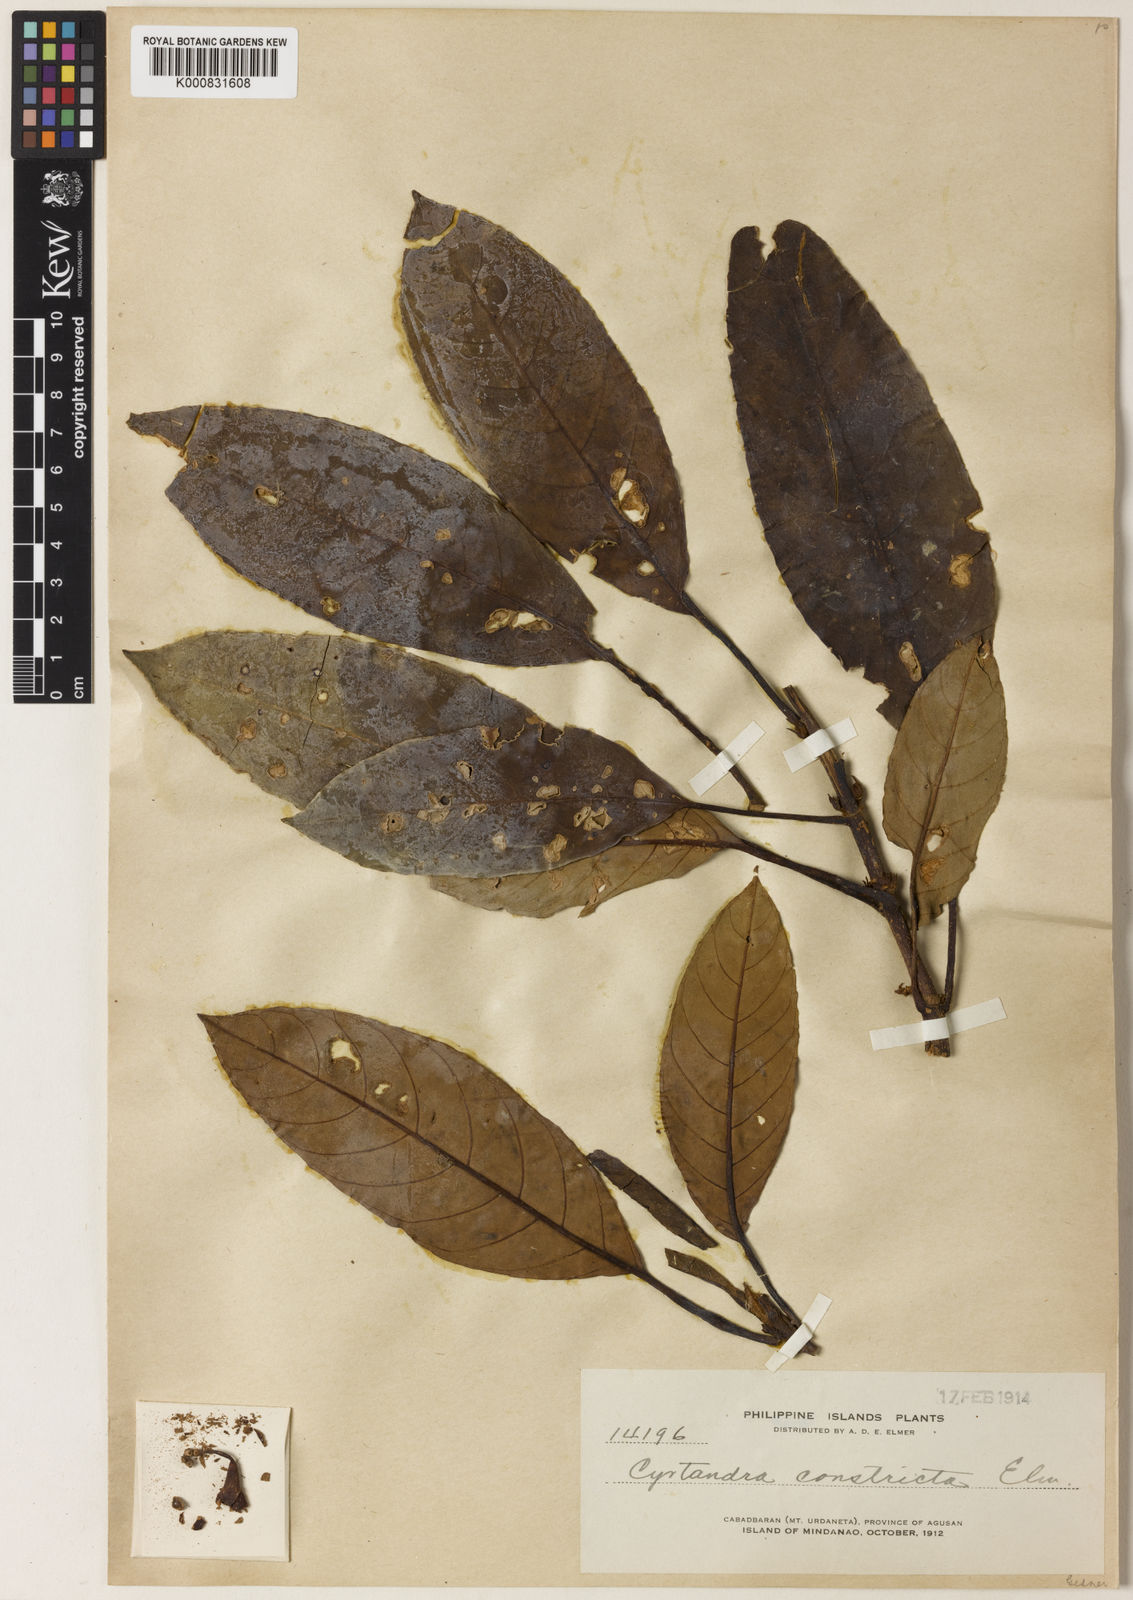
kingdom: Plantae
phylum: Tracheophyta
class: Magnoliopsida
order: Lamiales
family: Gesneriaceae
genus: Cyrtandra
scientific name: Cyrtandra constricta
